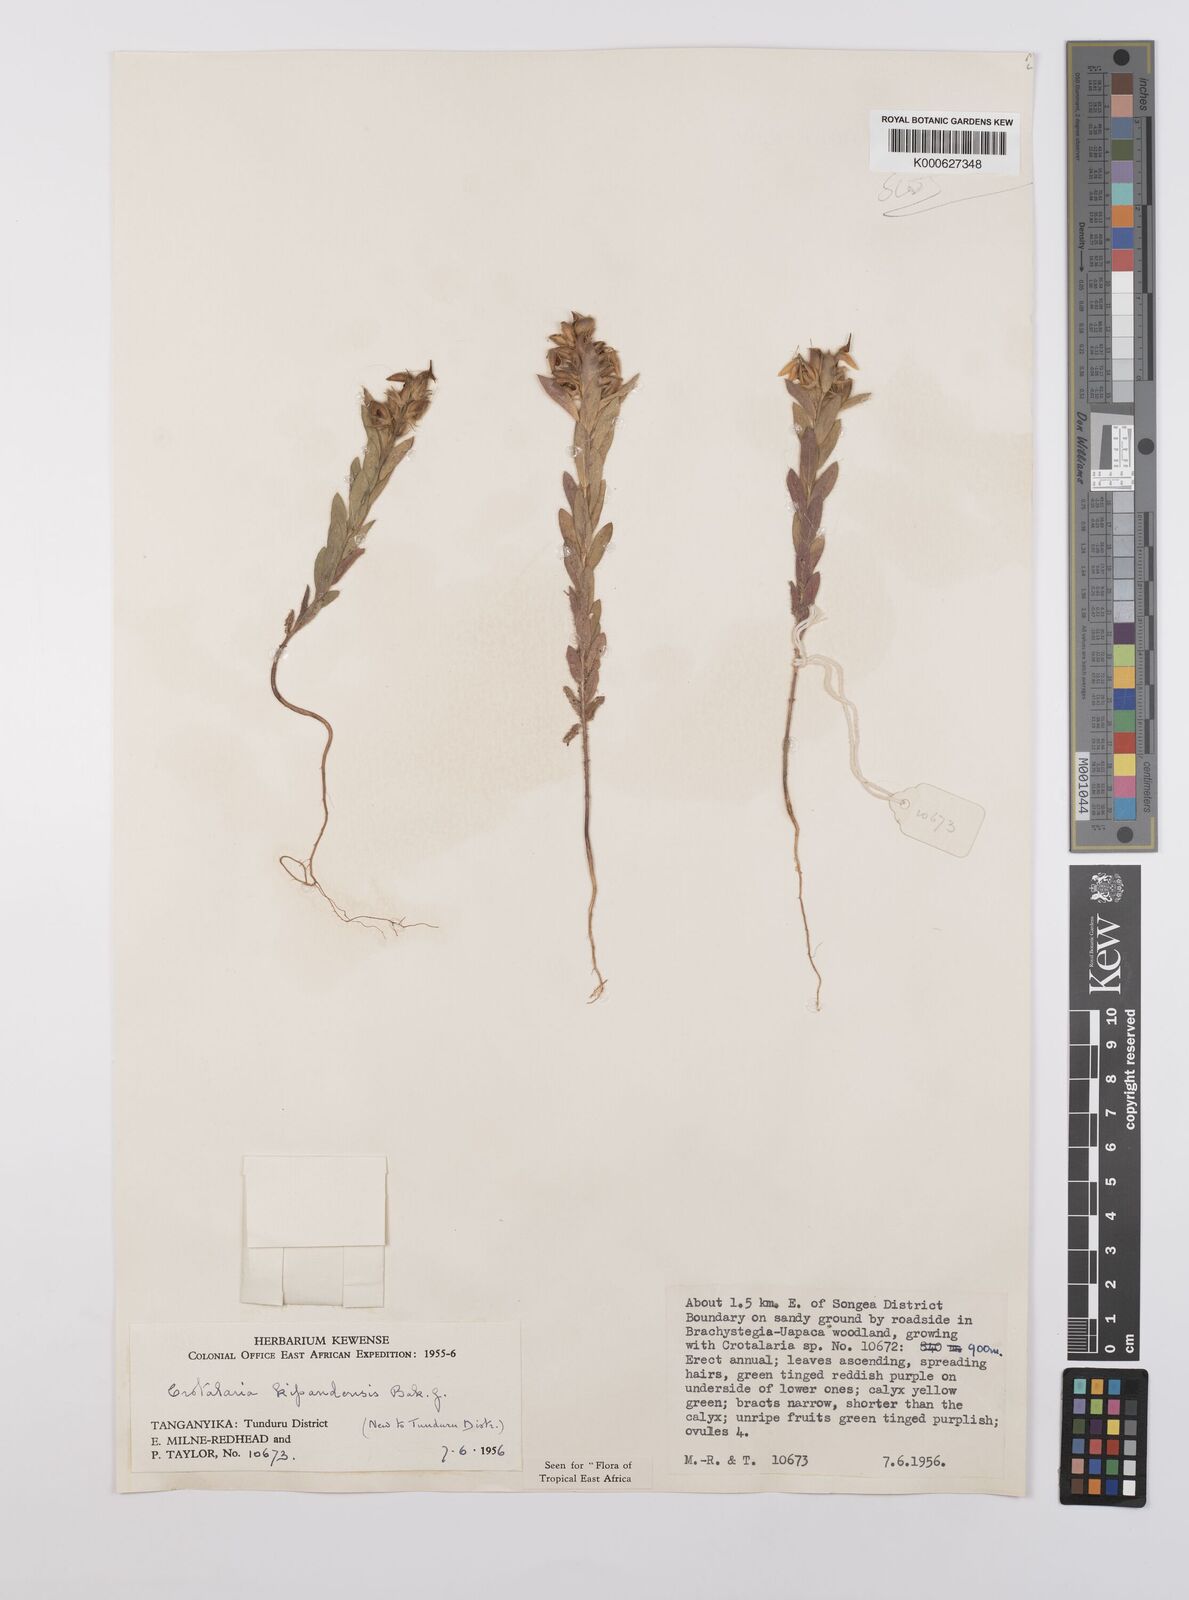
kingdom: Plantae
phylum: Tracheophyta
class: Magnoliopsida
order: Fabales
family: Fabaceae
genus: Crotalaria
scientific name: Crotalaria kipandensis
